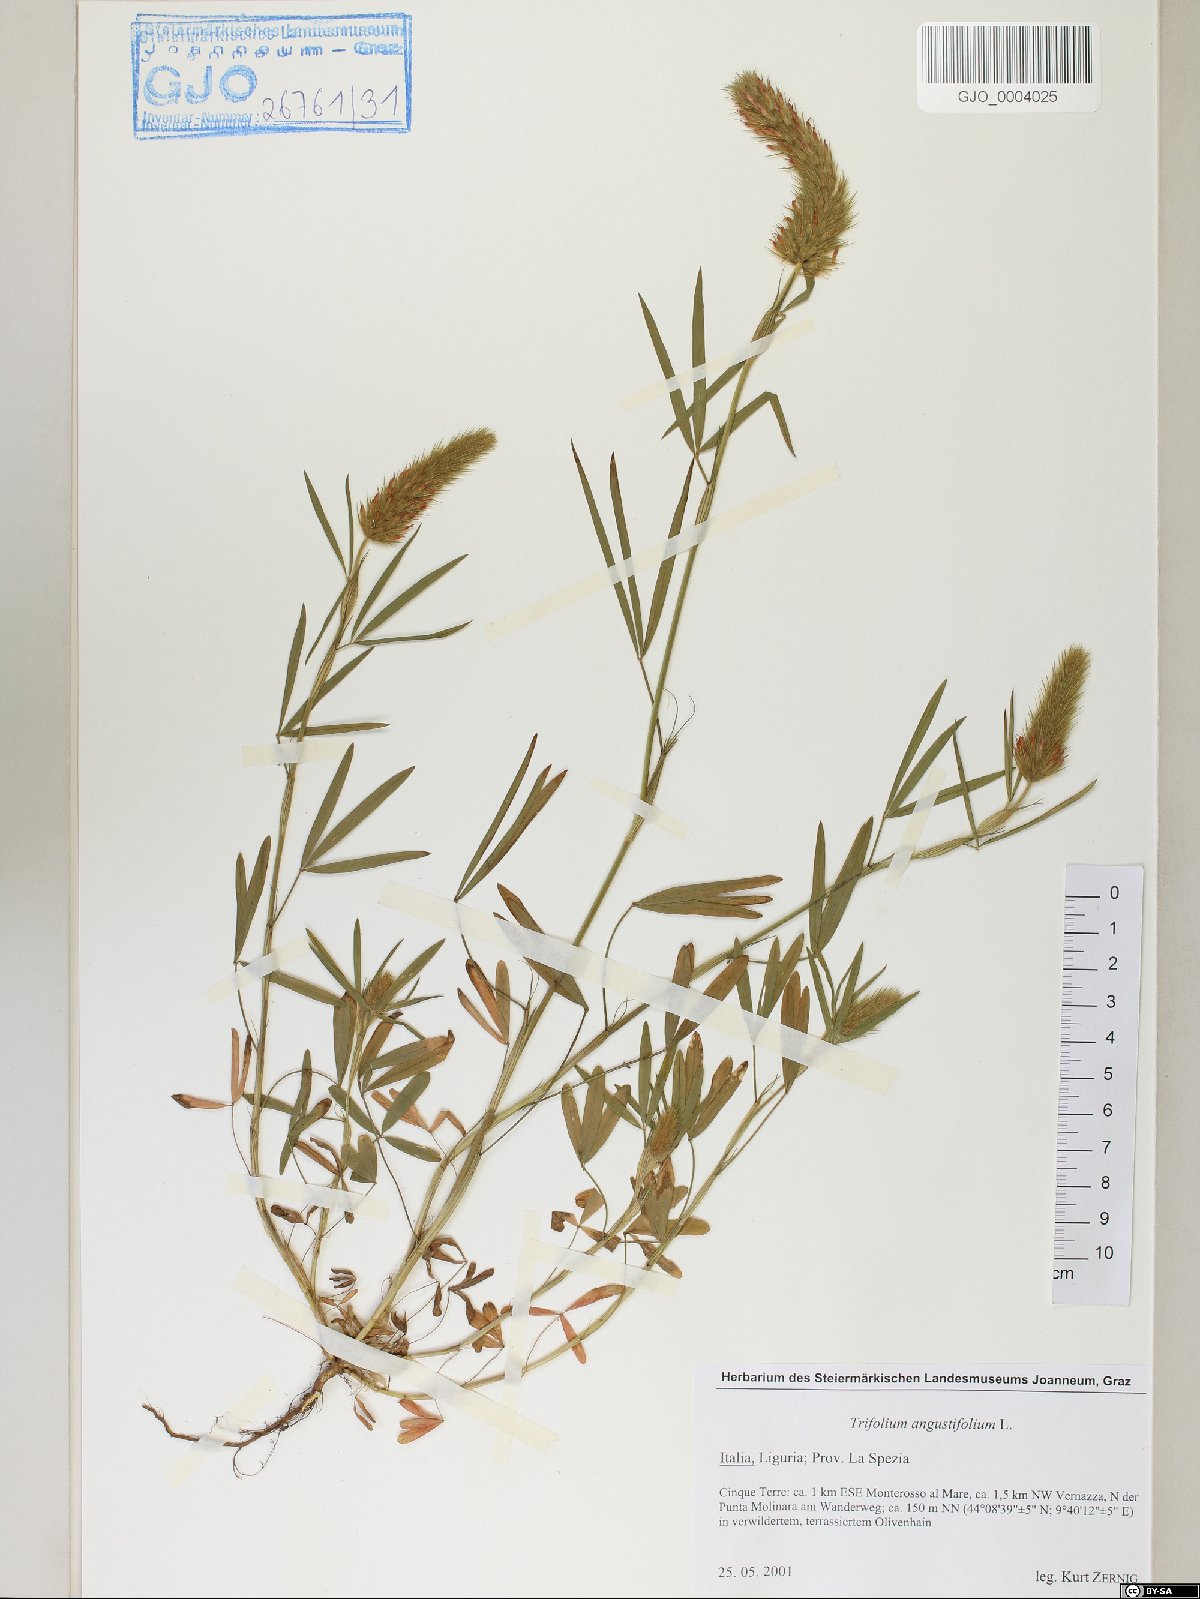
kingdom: Plantae
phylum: Tracheophyta
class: Magnoliopsida
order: Fabales
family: Fabaceae
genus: Trifolium
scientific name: Trifolium angustifolium
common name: Narrow clover
